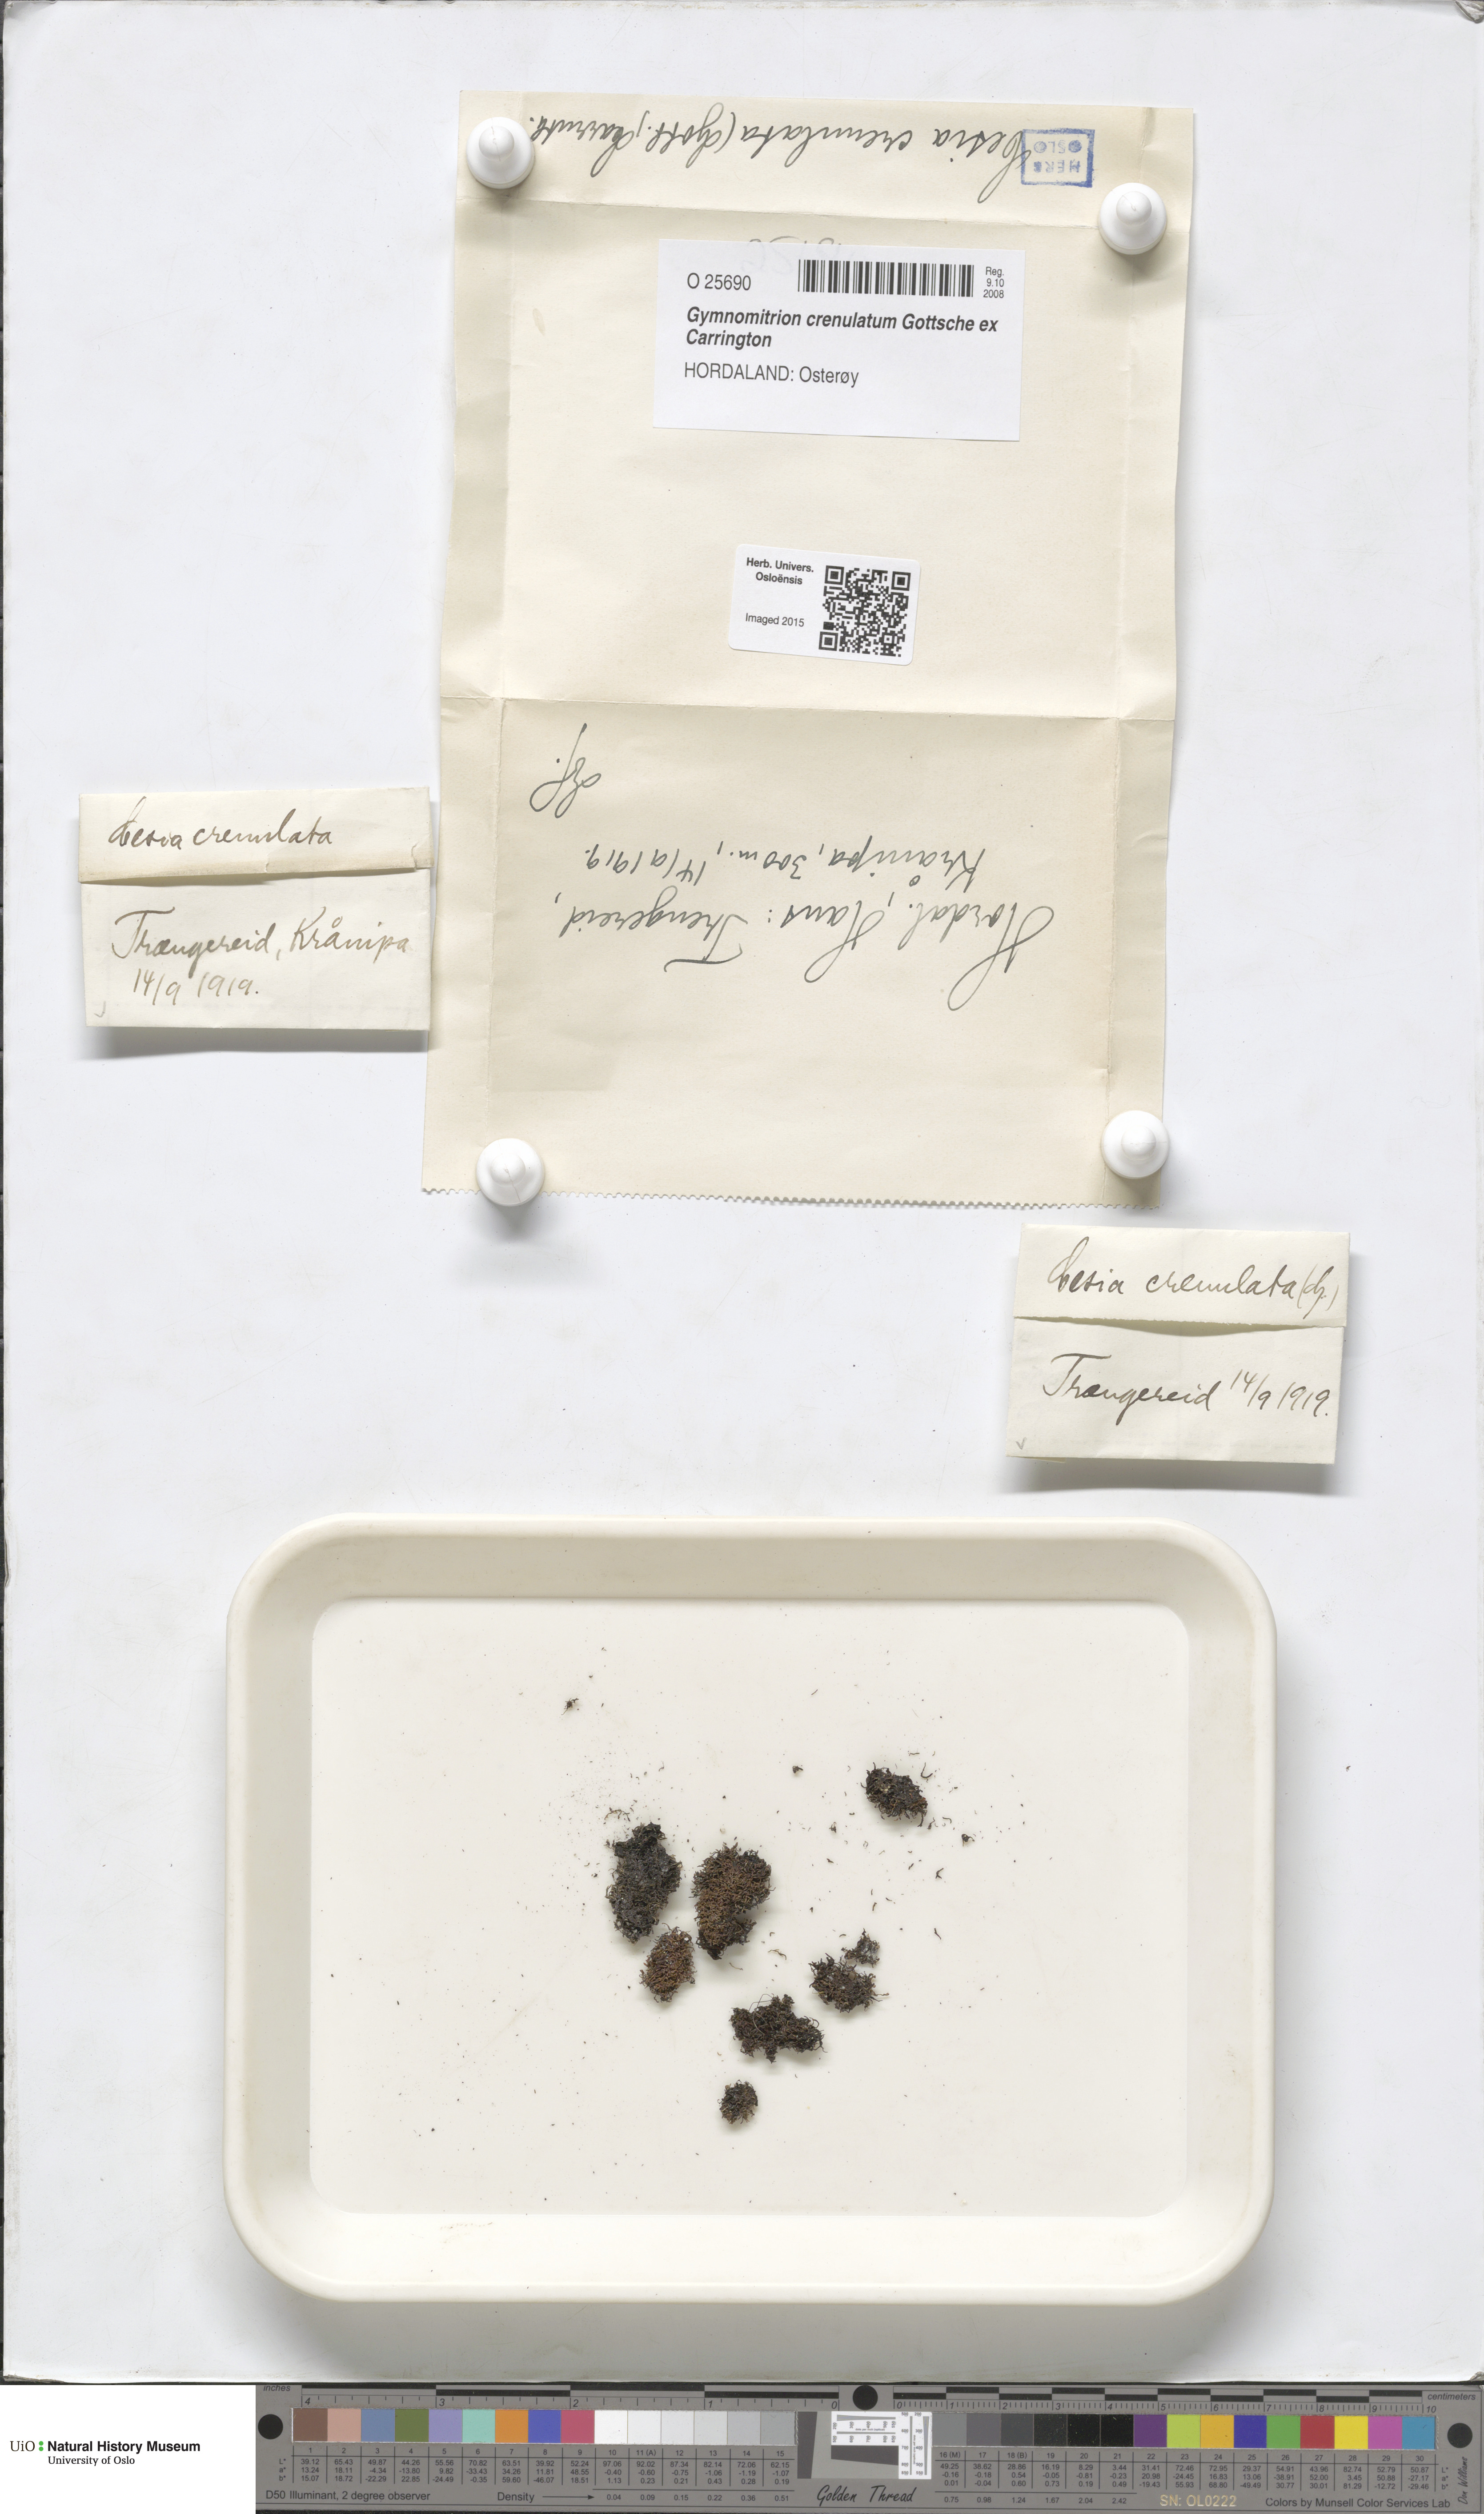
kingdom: Plantae
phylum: Marchantiophyta
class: Jungermanniopsida
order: Jungermanniales
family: Gymnomitriaceae
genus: Gymnomitrion
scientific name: Gymnomitrion crenulatum
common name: Western frostwort
